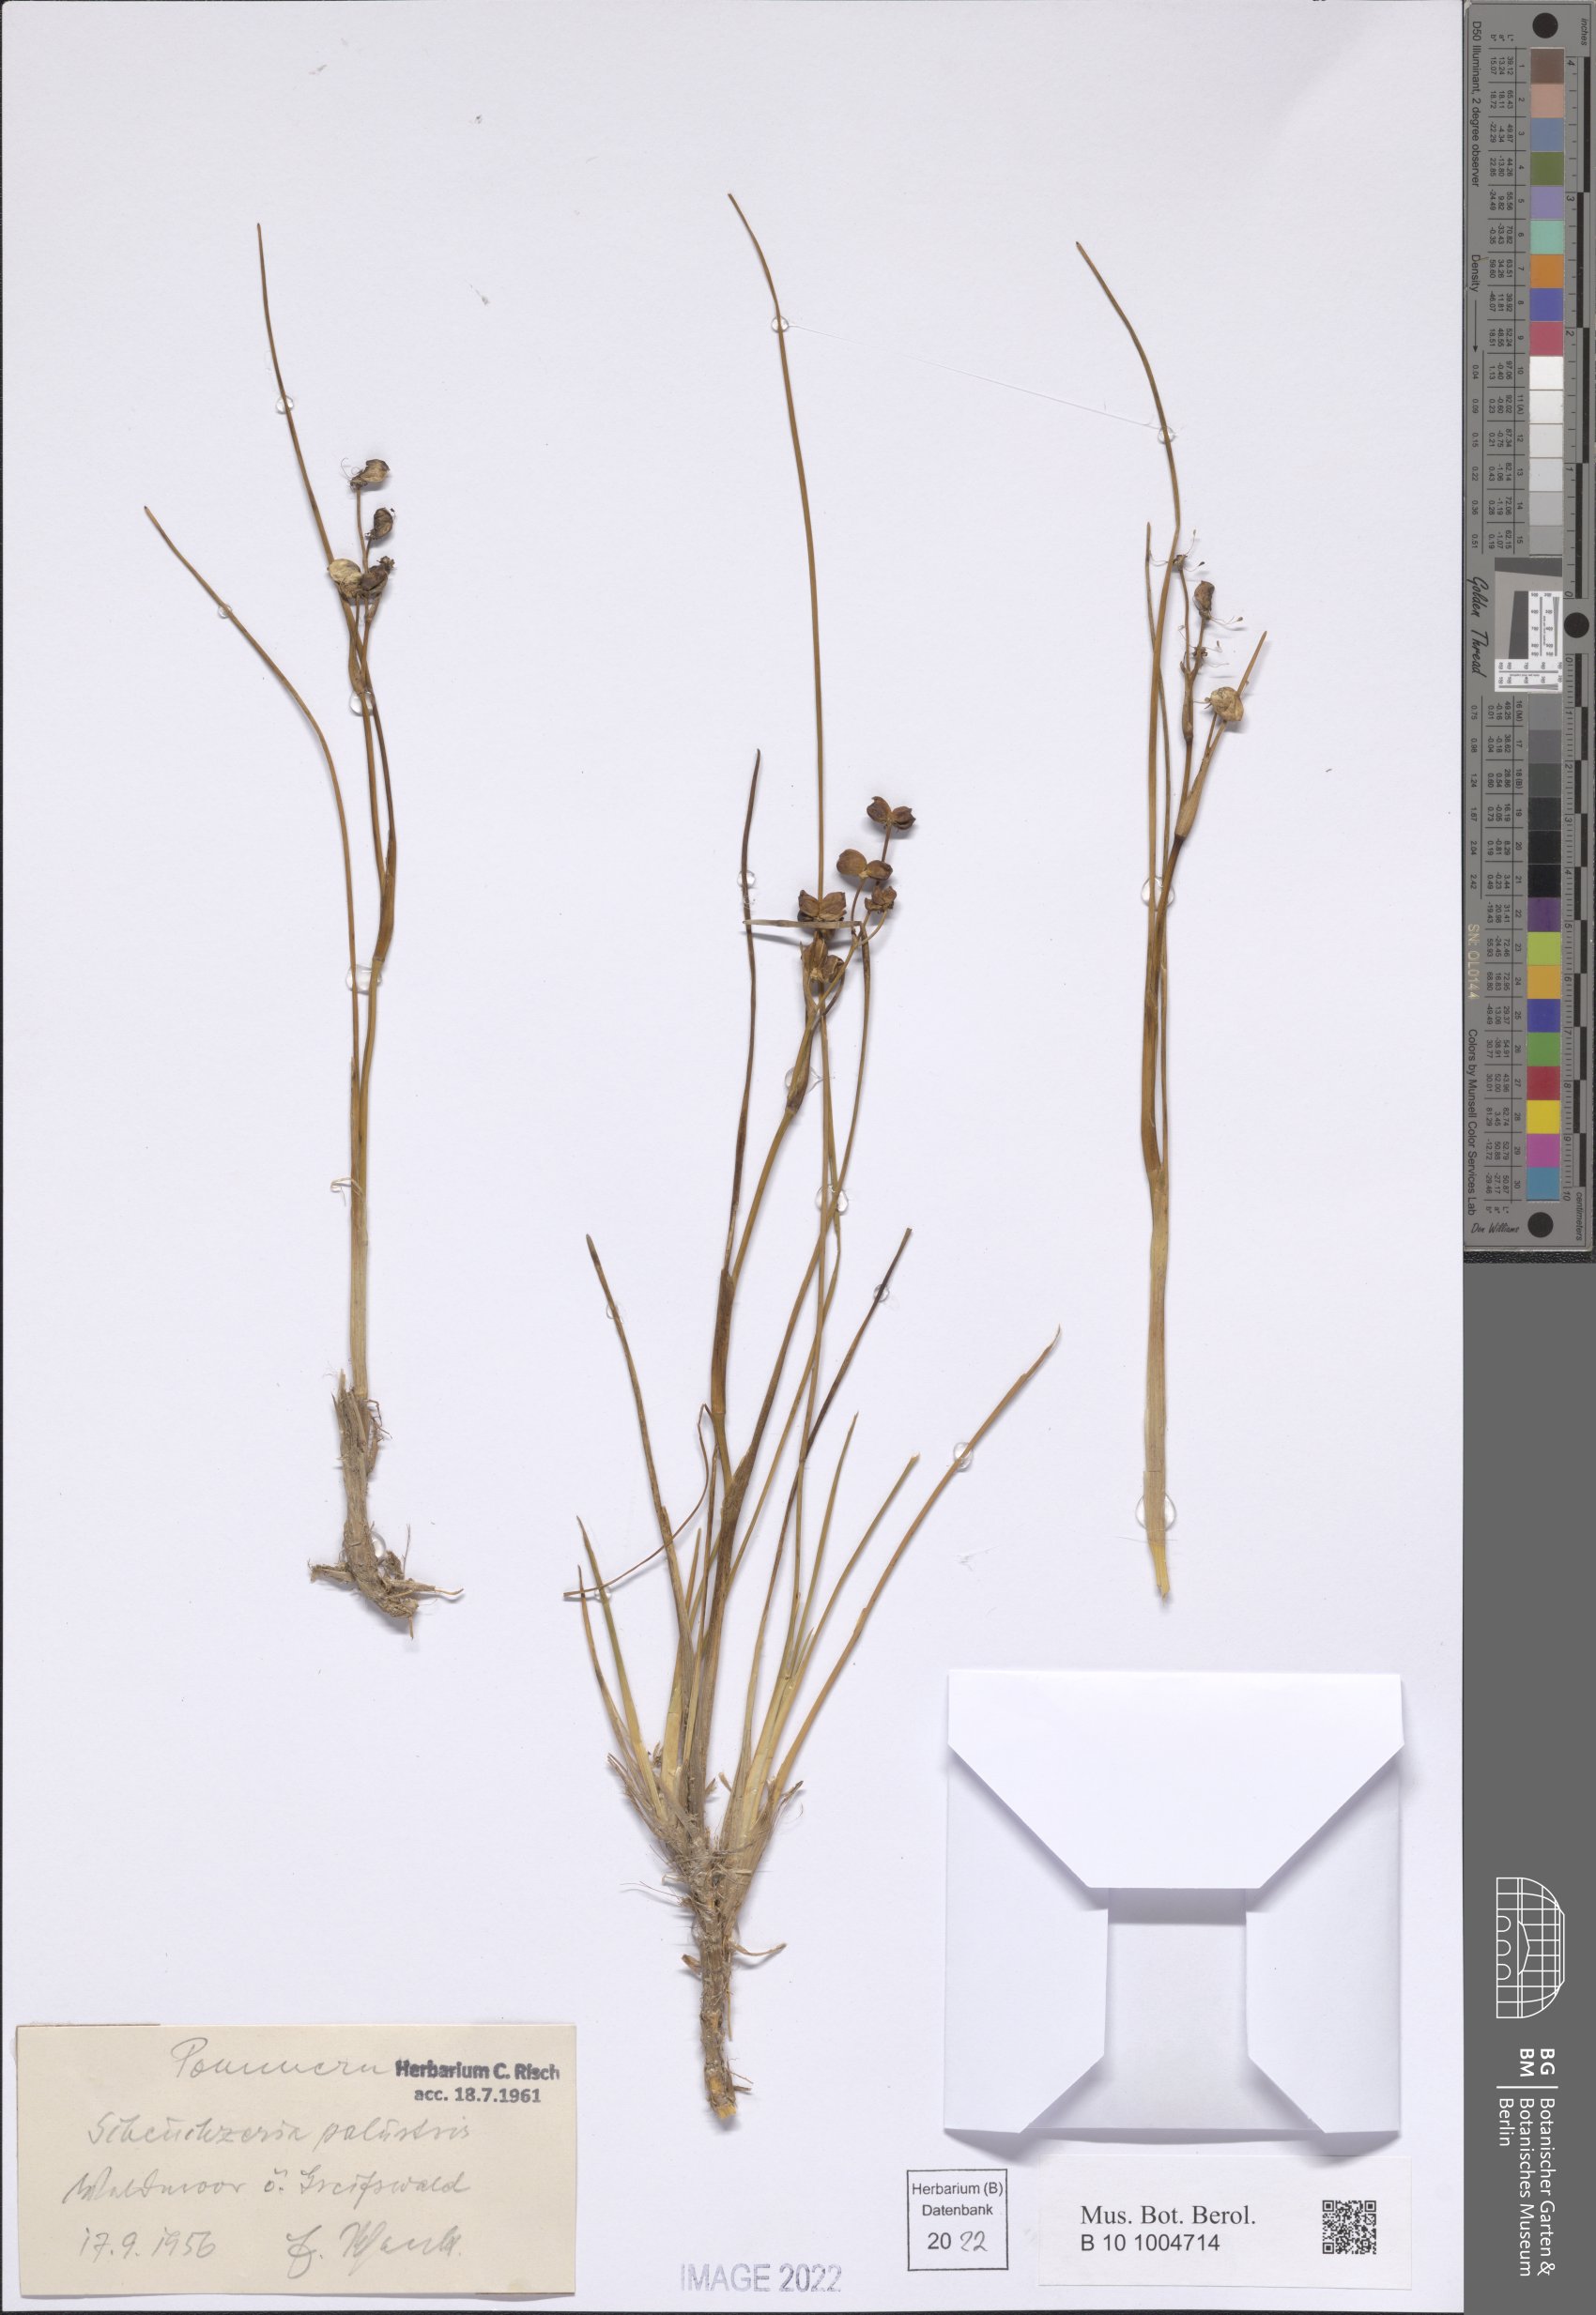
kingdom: Plantae
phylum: Tracheophyta
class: Liliopsida
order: Alismatales
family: Scheuchzeriaceae
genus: Scheuchzeria
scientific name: Scheuchzeria palustris
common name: Rannoch-rush
